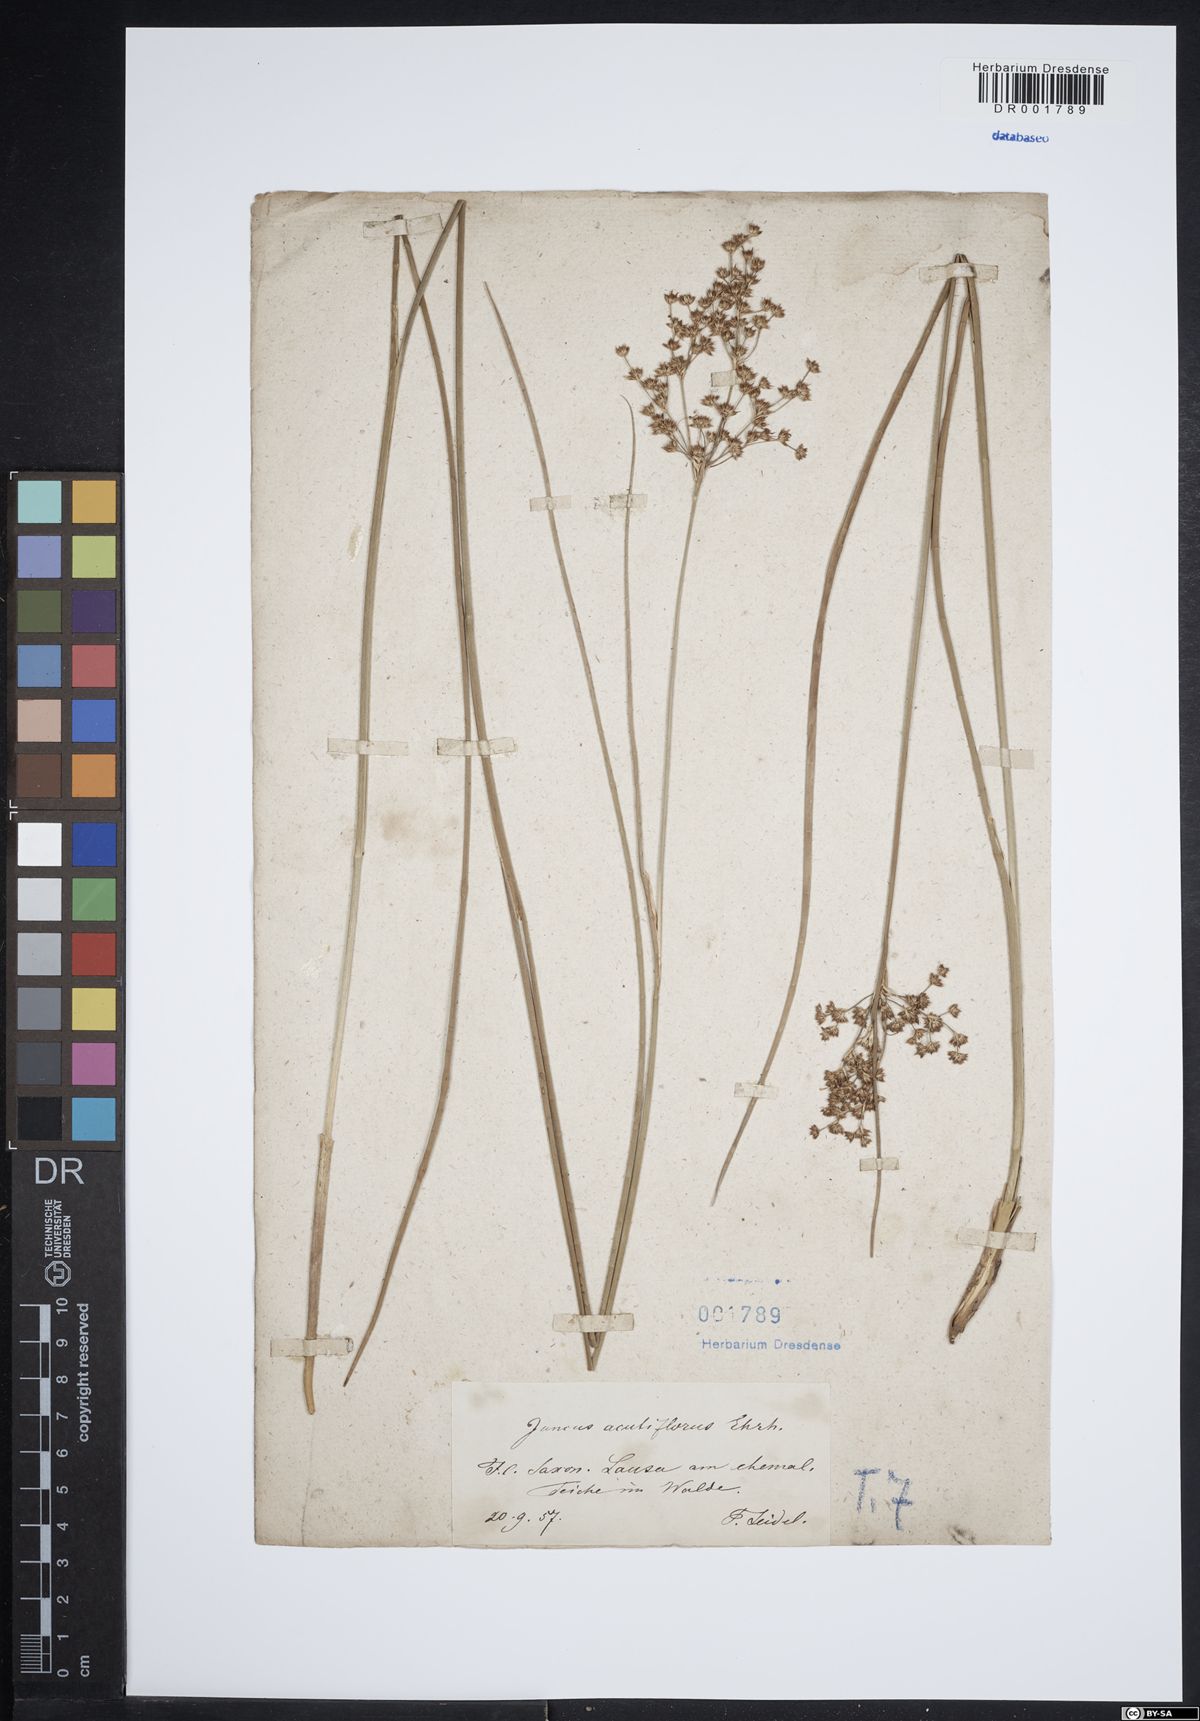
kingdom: Plantae
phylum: Tracheophyta
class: Liliopsida
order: Poales
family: Juncaceae
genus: Juncus
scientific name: Juncus acutiflorus
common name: Sharp-flowered rush
